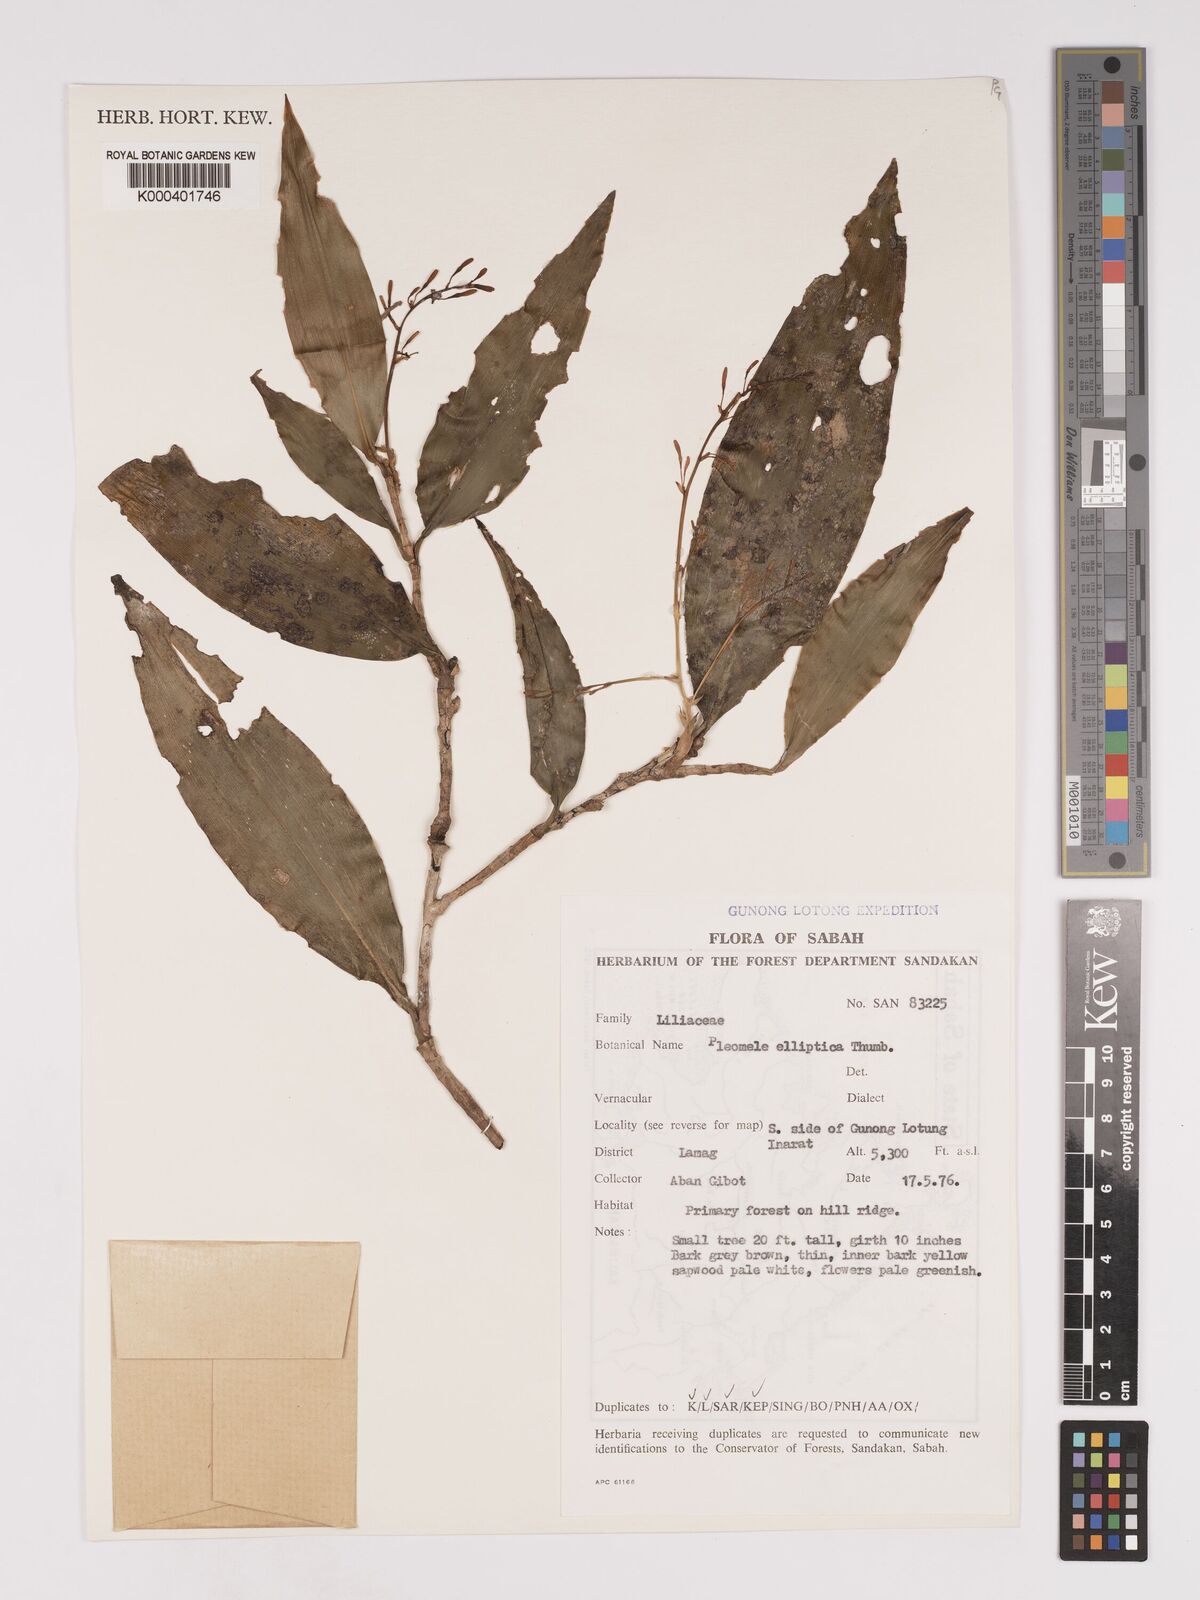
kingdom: Plantae
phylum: Tracheophyta
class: Liliopsida
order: Asparagales
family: Asparagaceae
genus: Dracaena
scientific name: Dracaena elliptica
